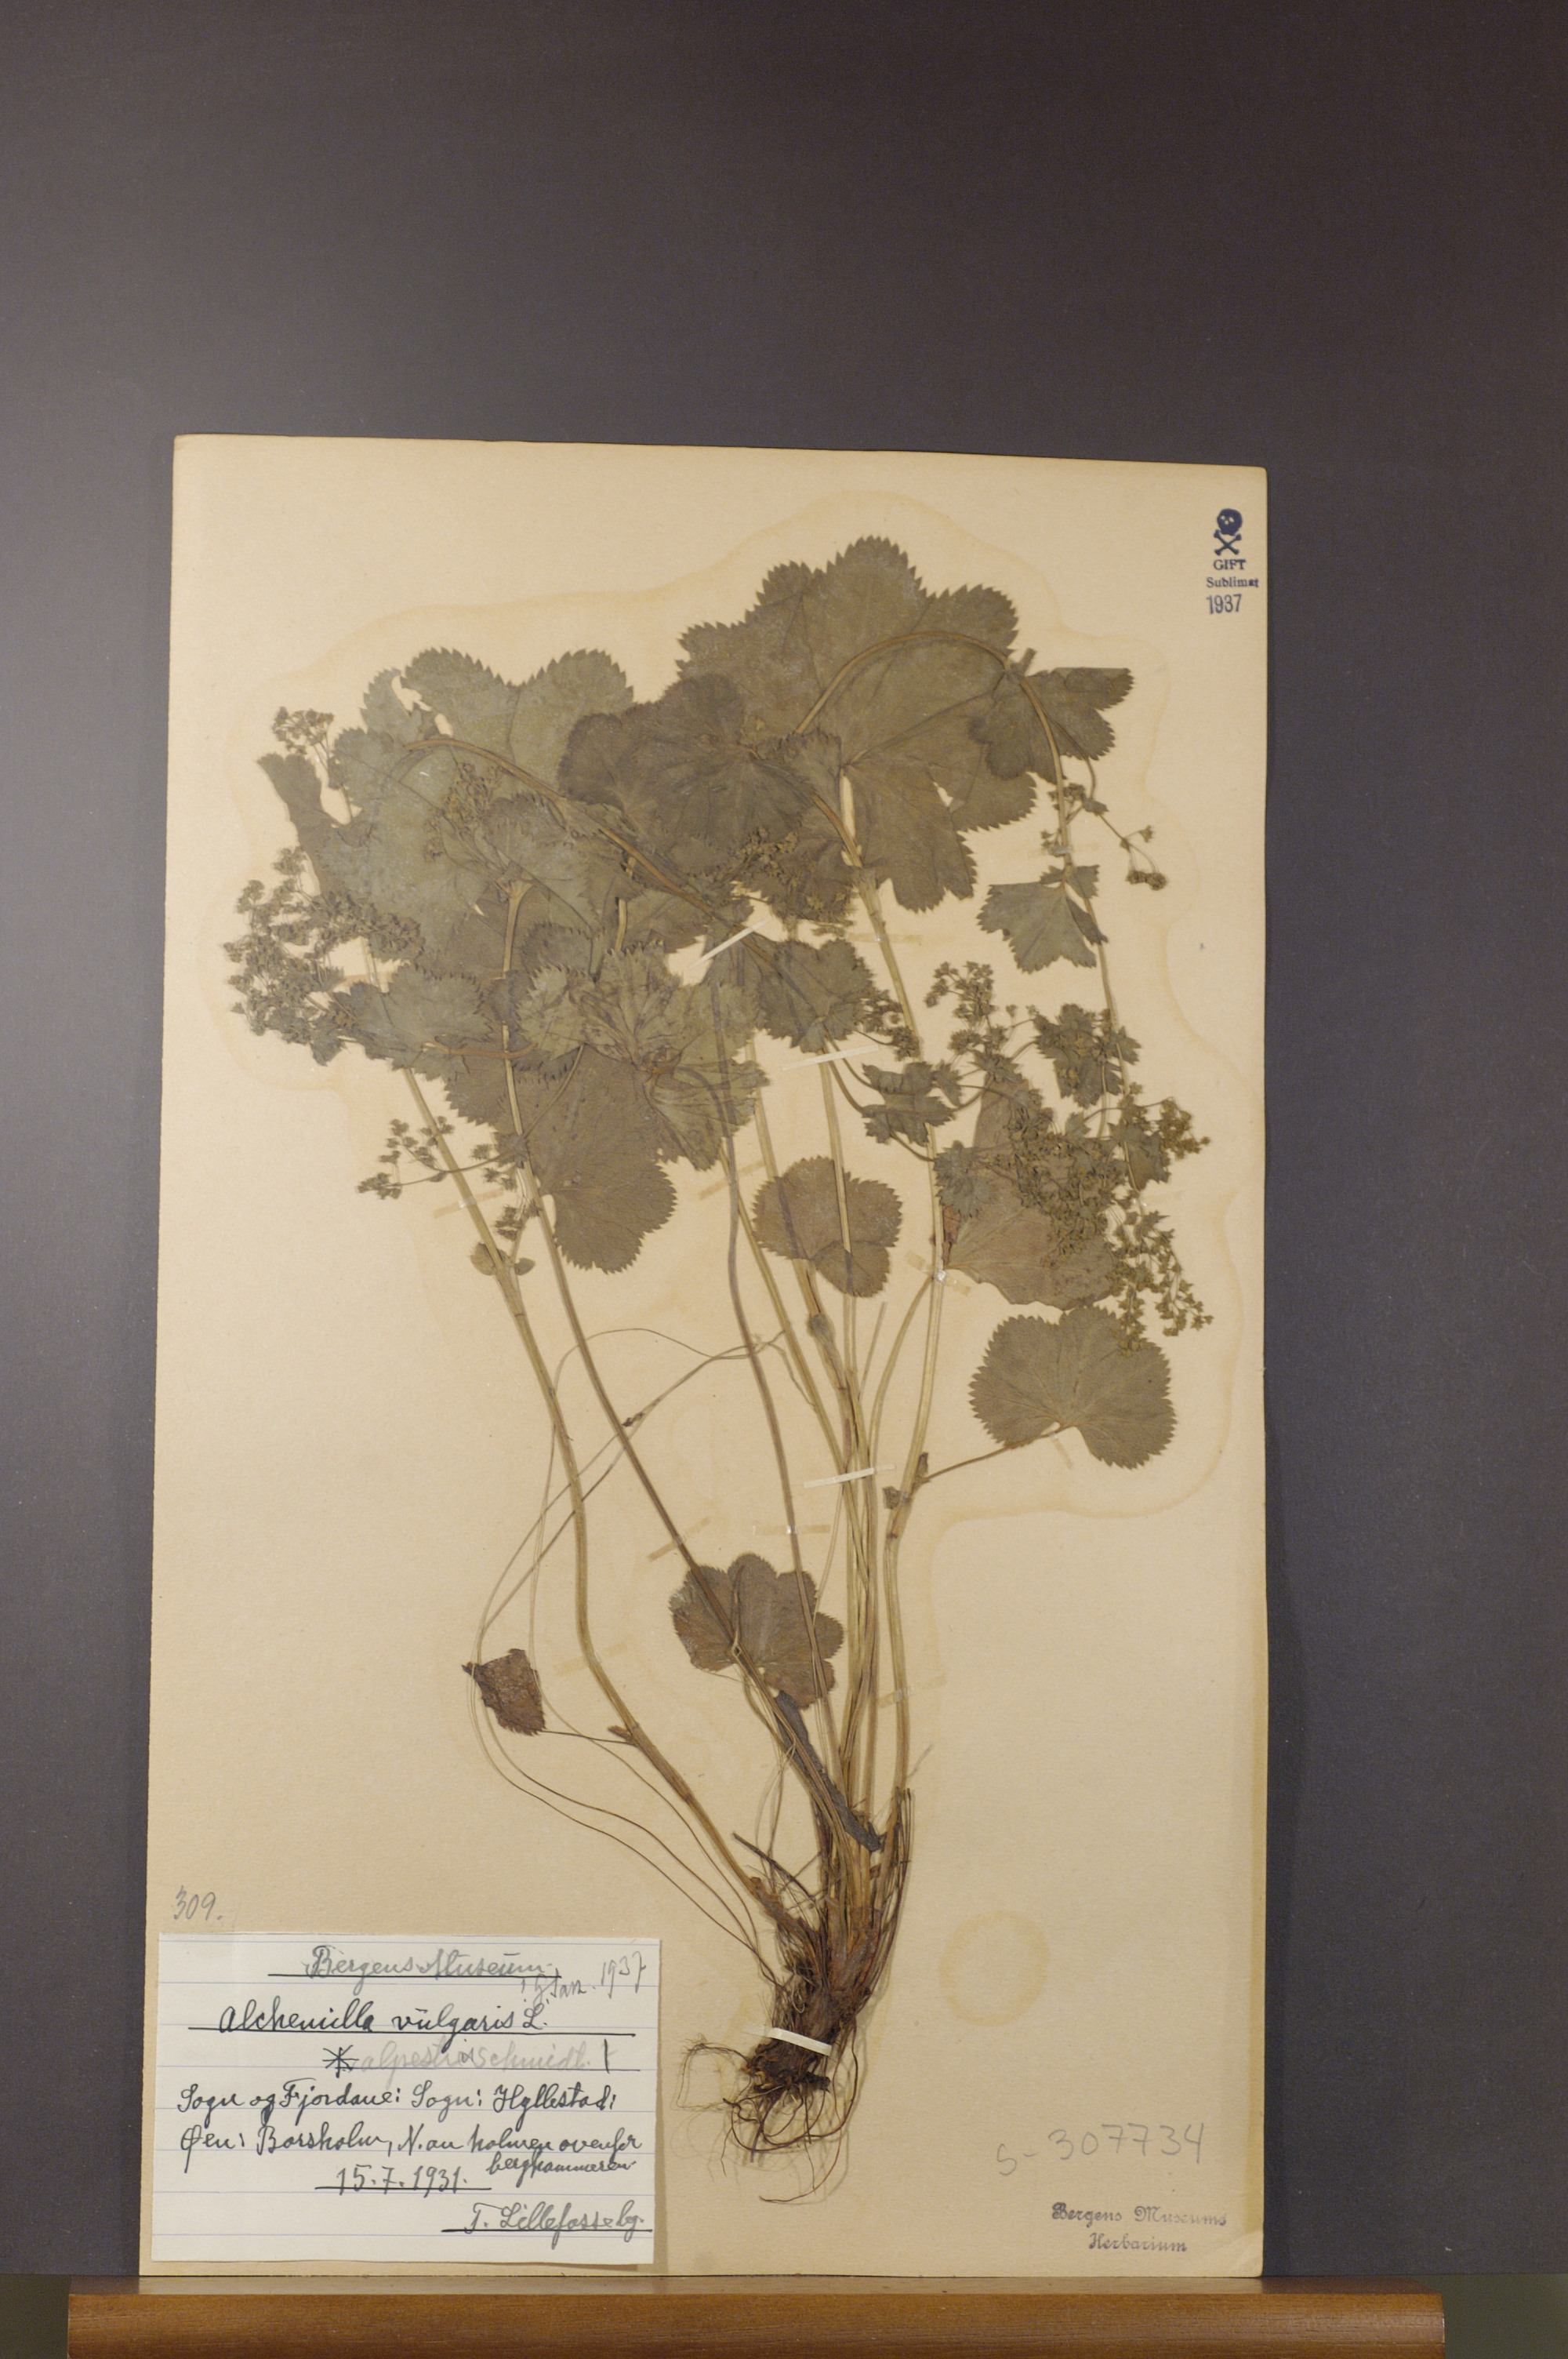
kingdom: Plantae
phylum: Tracheophyta
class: Magnoliopsida
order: Rosales
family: Rosaceae
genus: Alchemilla
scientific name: Alchemilla glabra
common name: Smooth lady's-mantle
